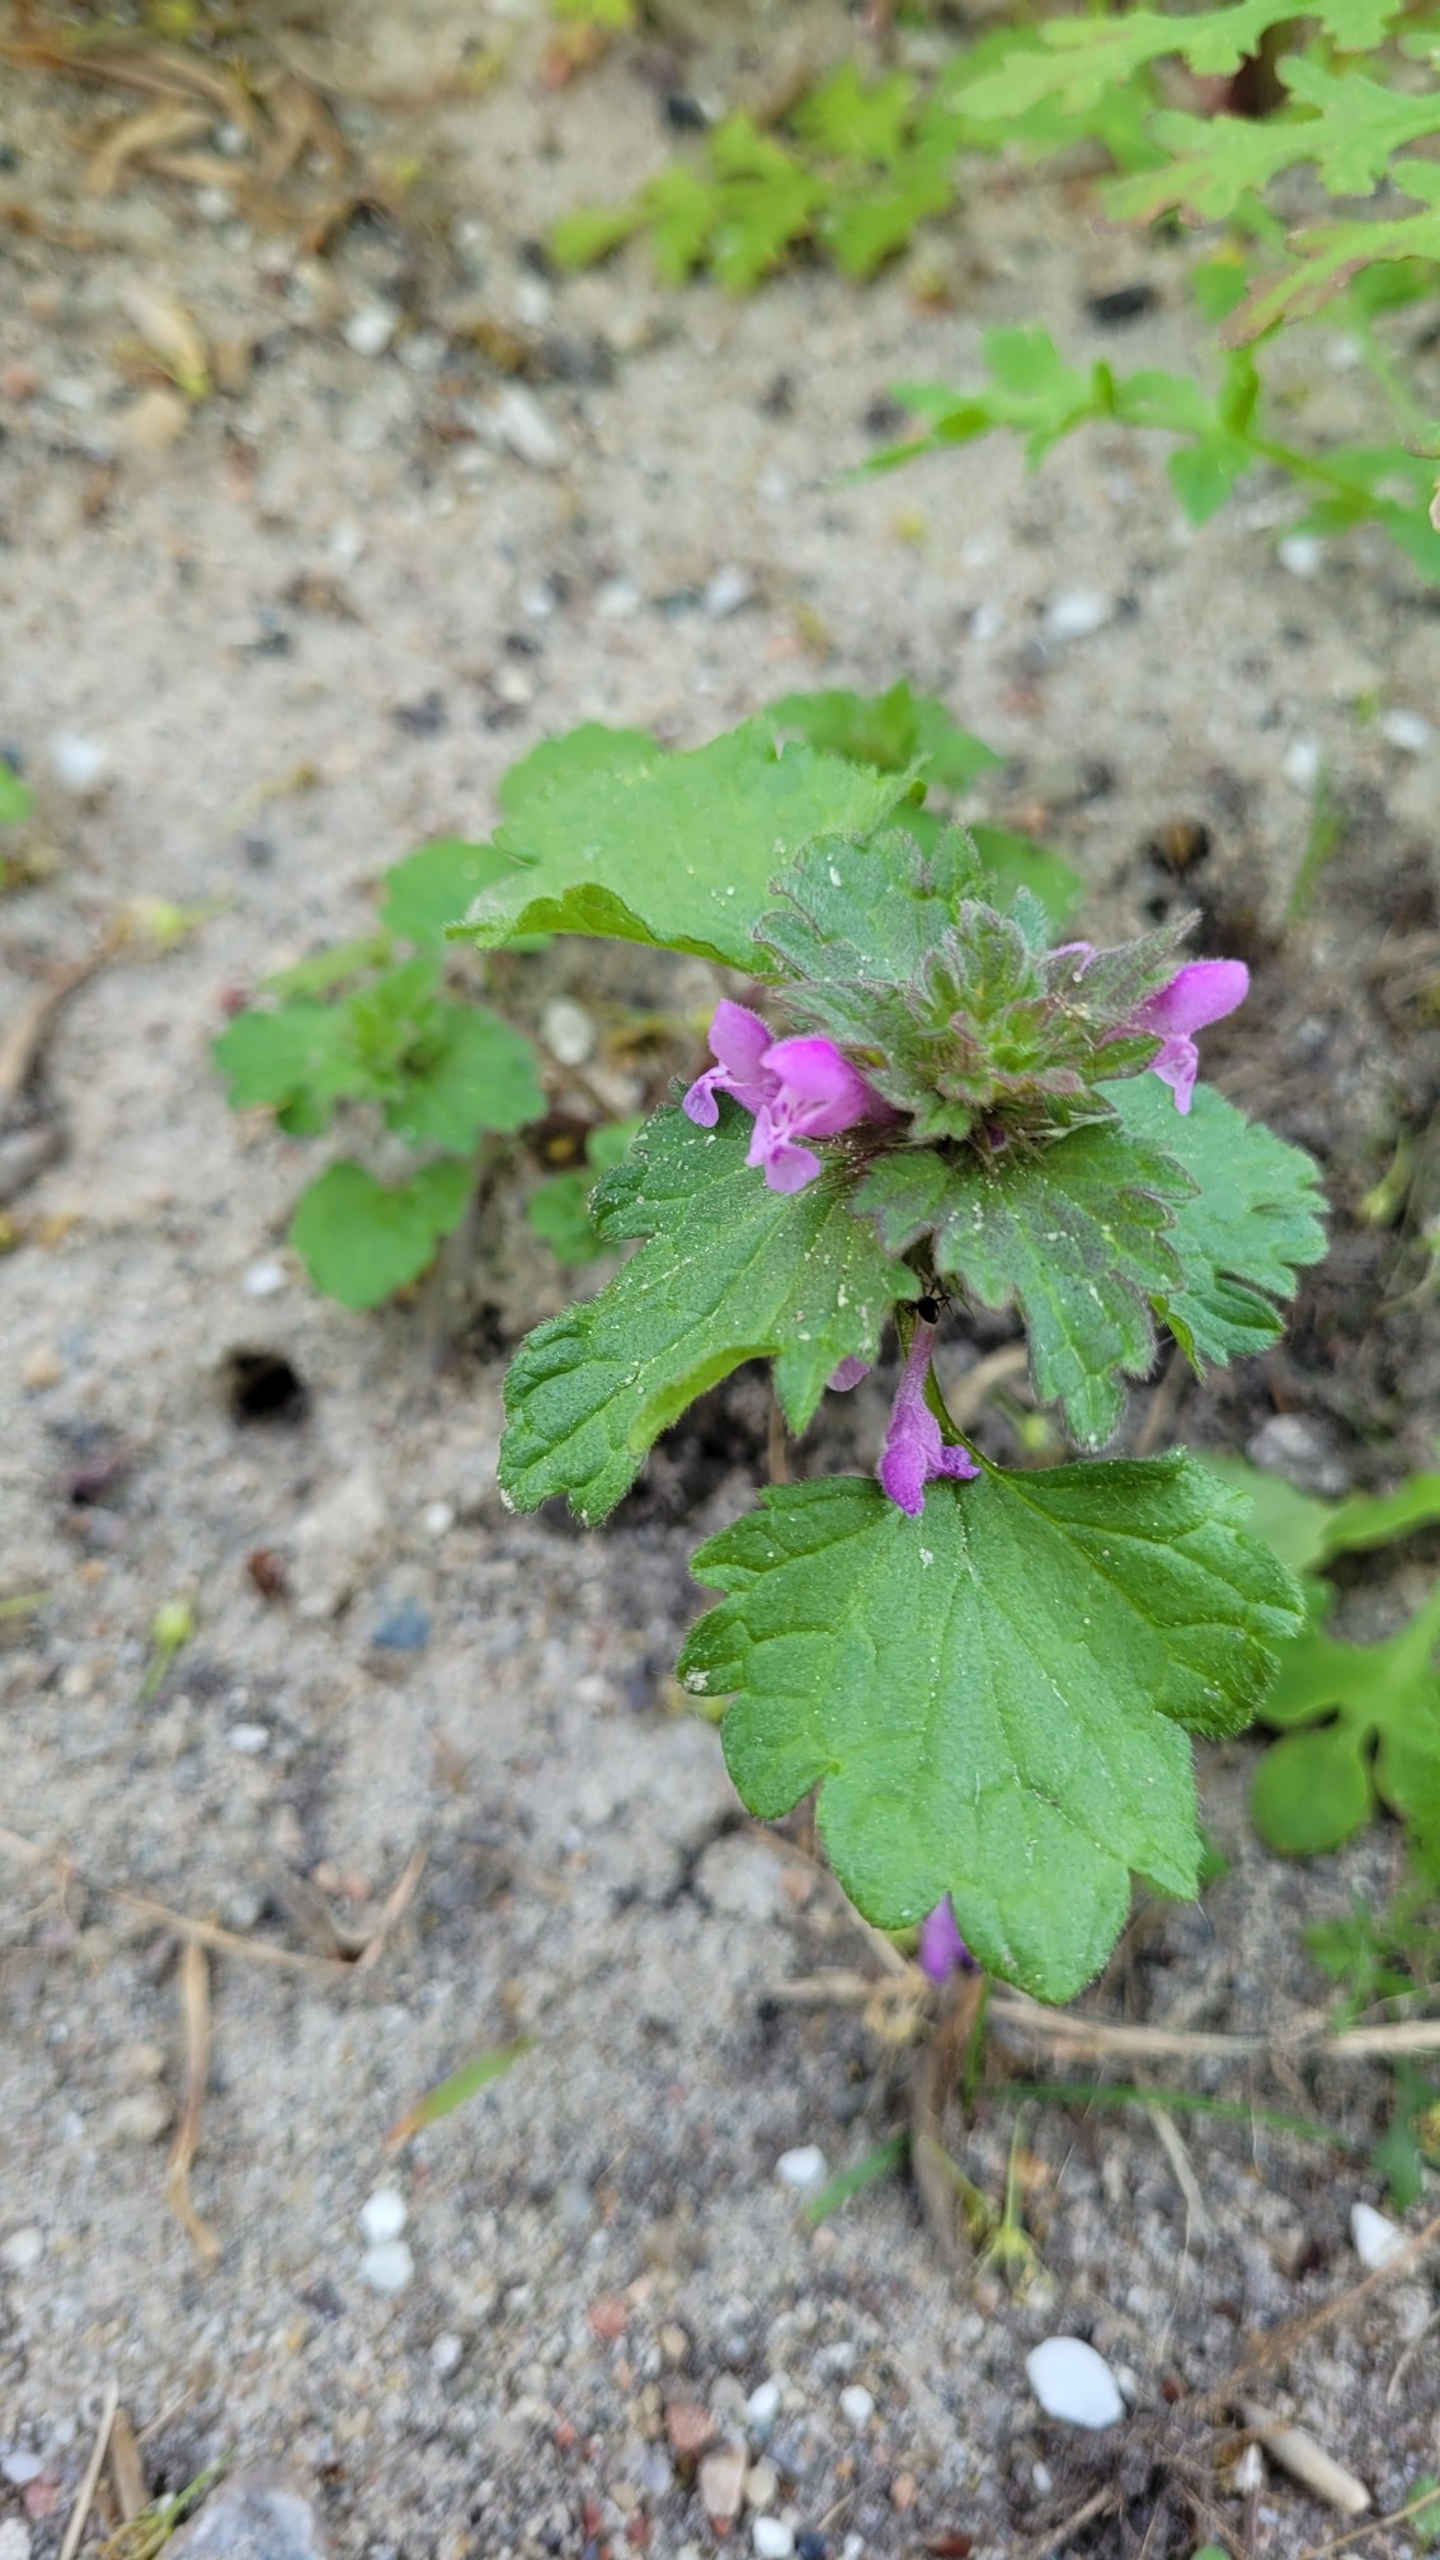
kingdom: Plantae
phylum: Tracheophyta
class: Magnoliopsida
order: Lamiales
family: Lamiaceae
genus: Lamium
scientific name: Lamium hybridum
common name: Fliget tvetand
